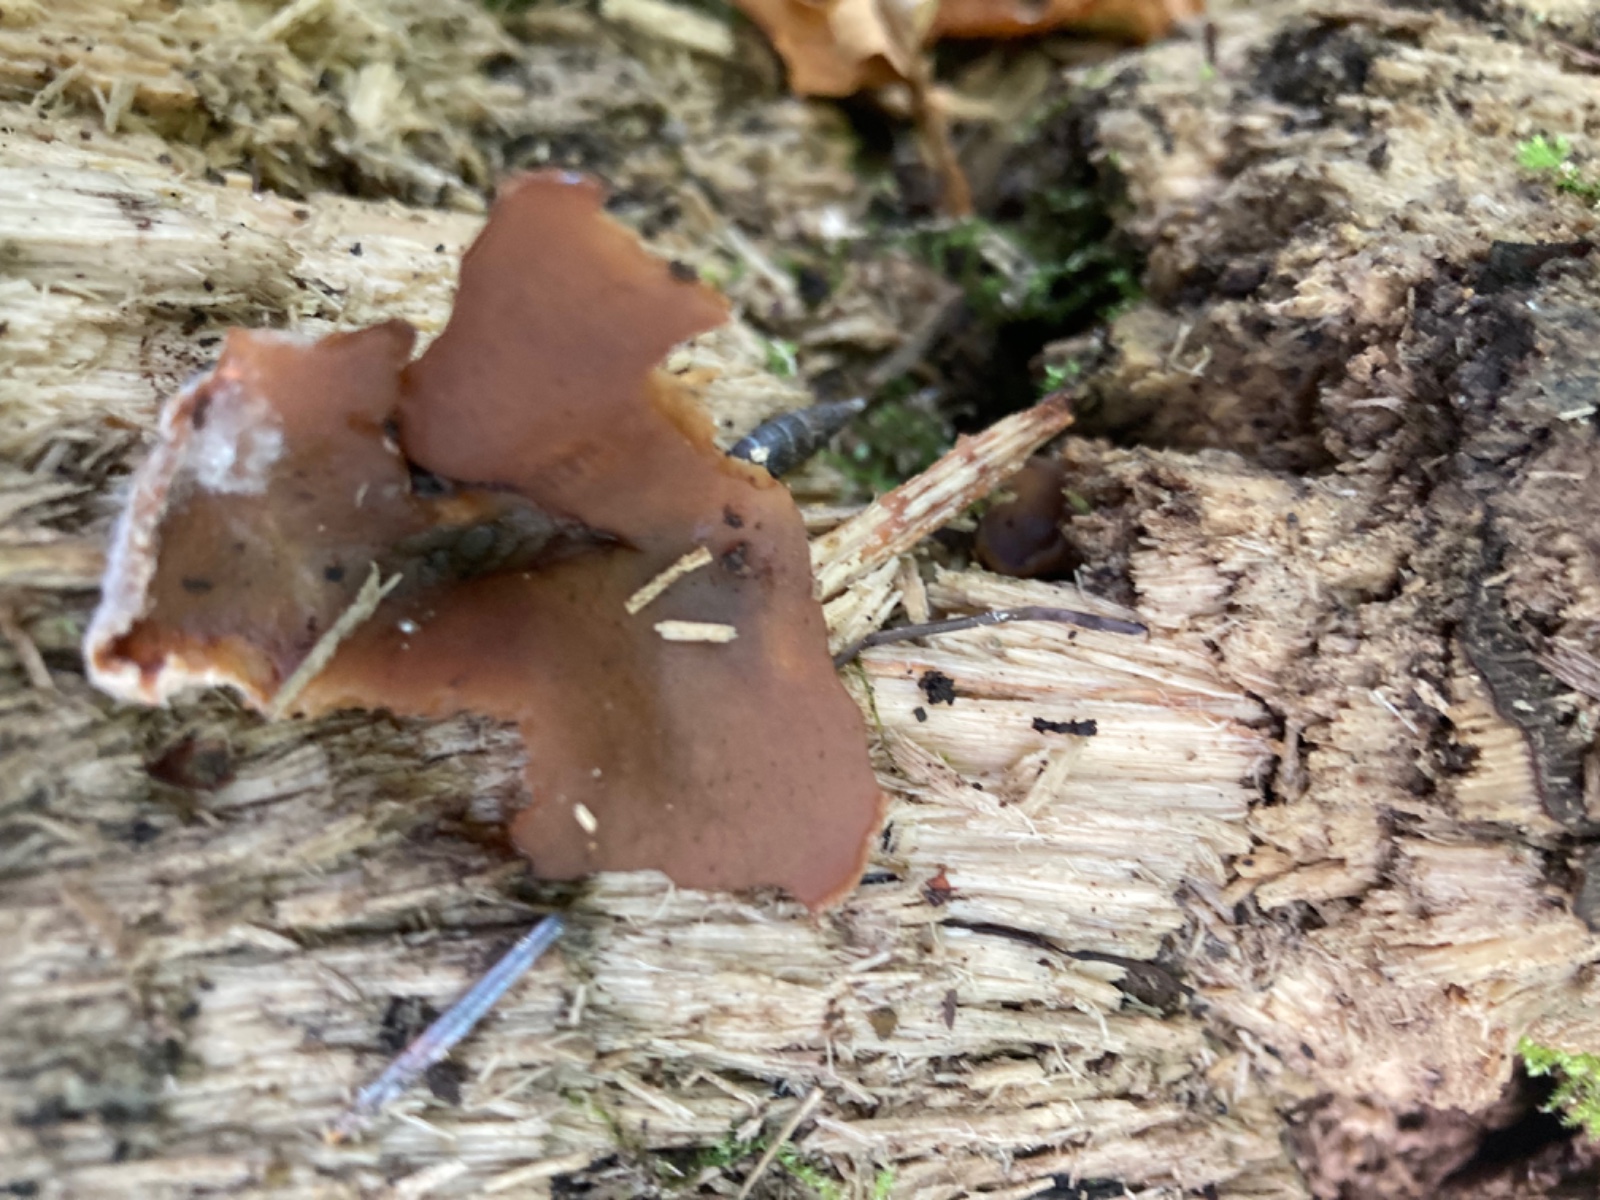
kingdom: Fungi
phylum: Ascomycota
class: Pezizomycetes
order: Pezizales
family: Pezizaceae
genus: Adelphella
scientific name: Adelphella babingtonii
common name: kastaniebrun bægersvamp
